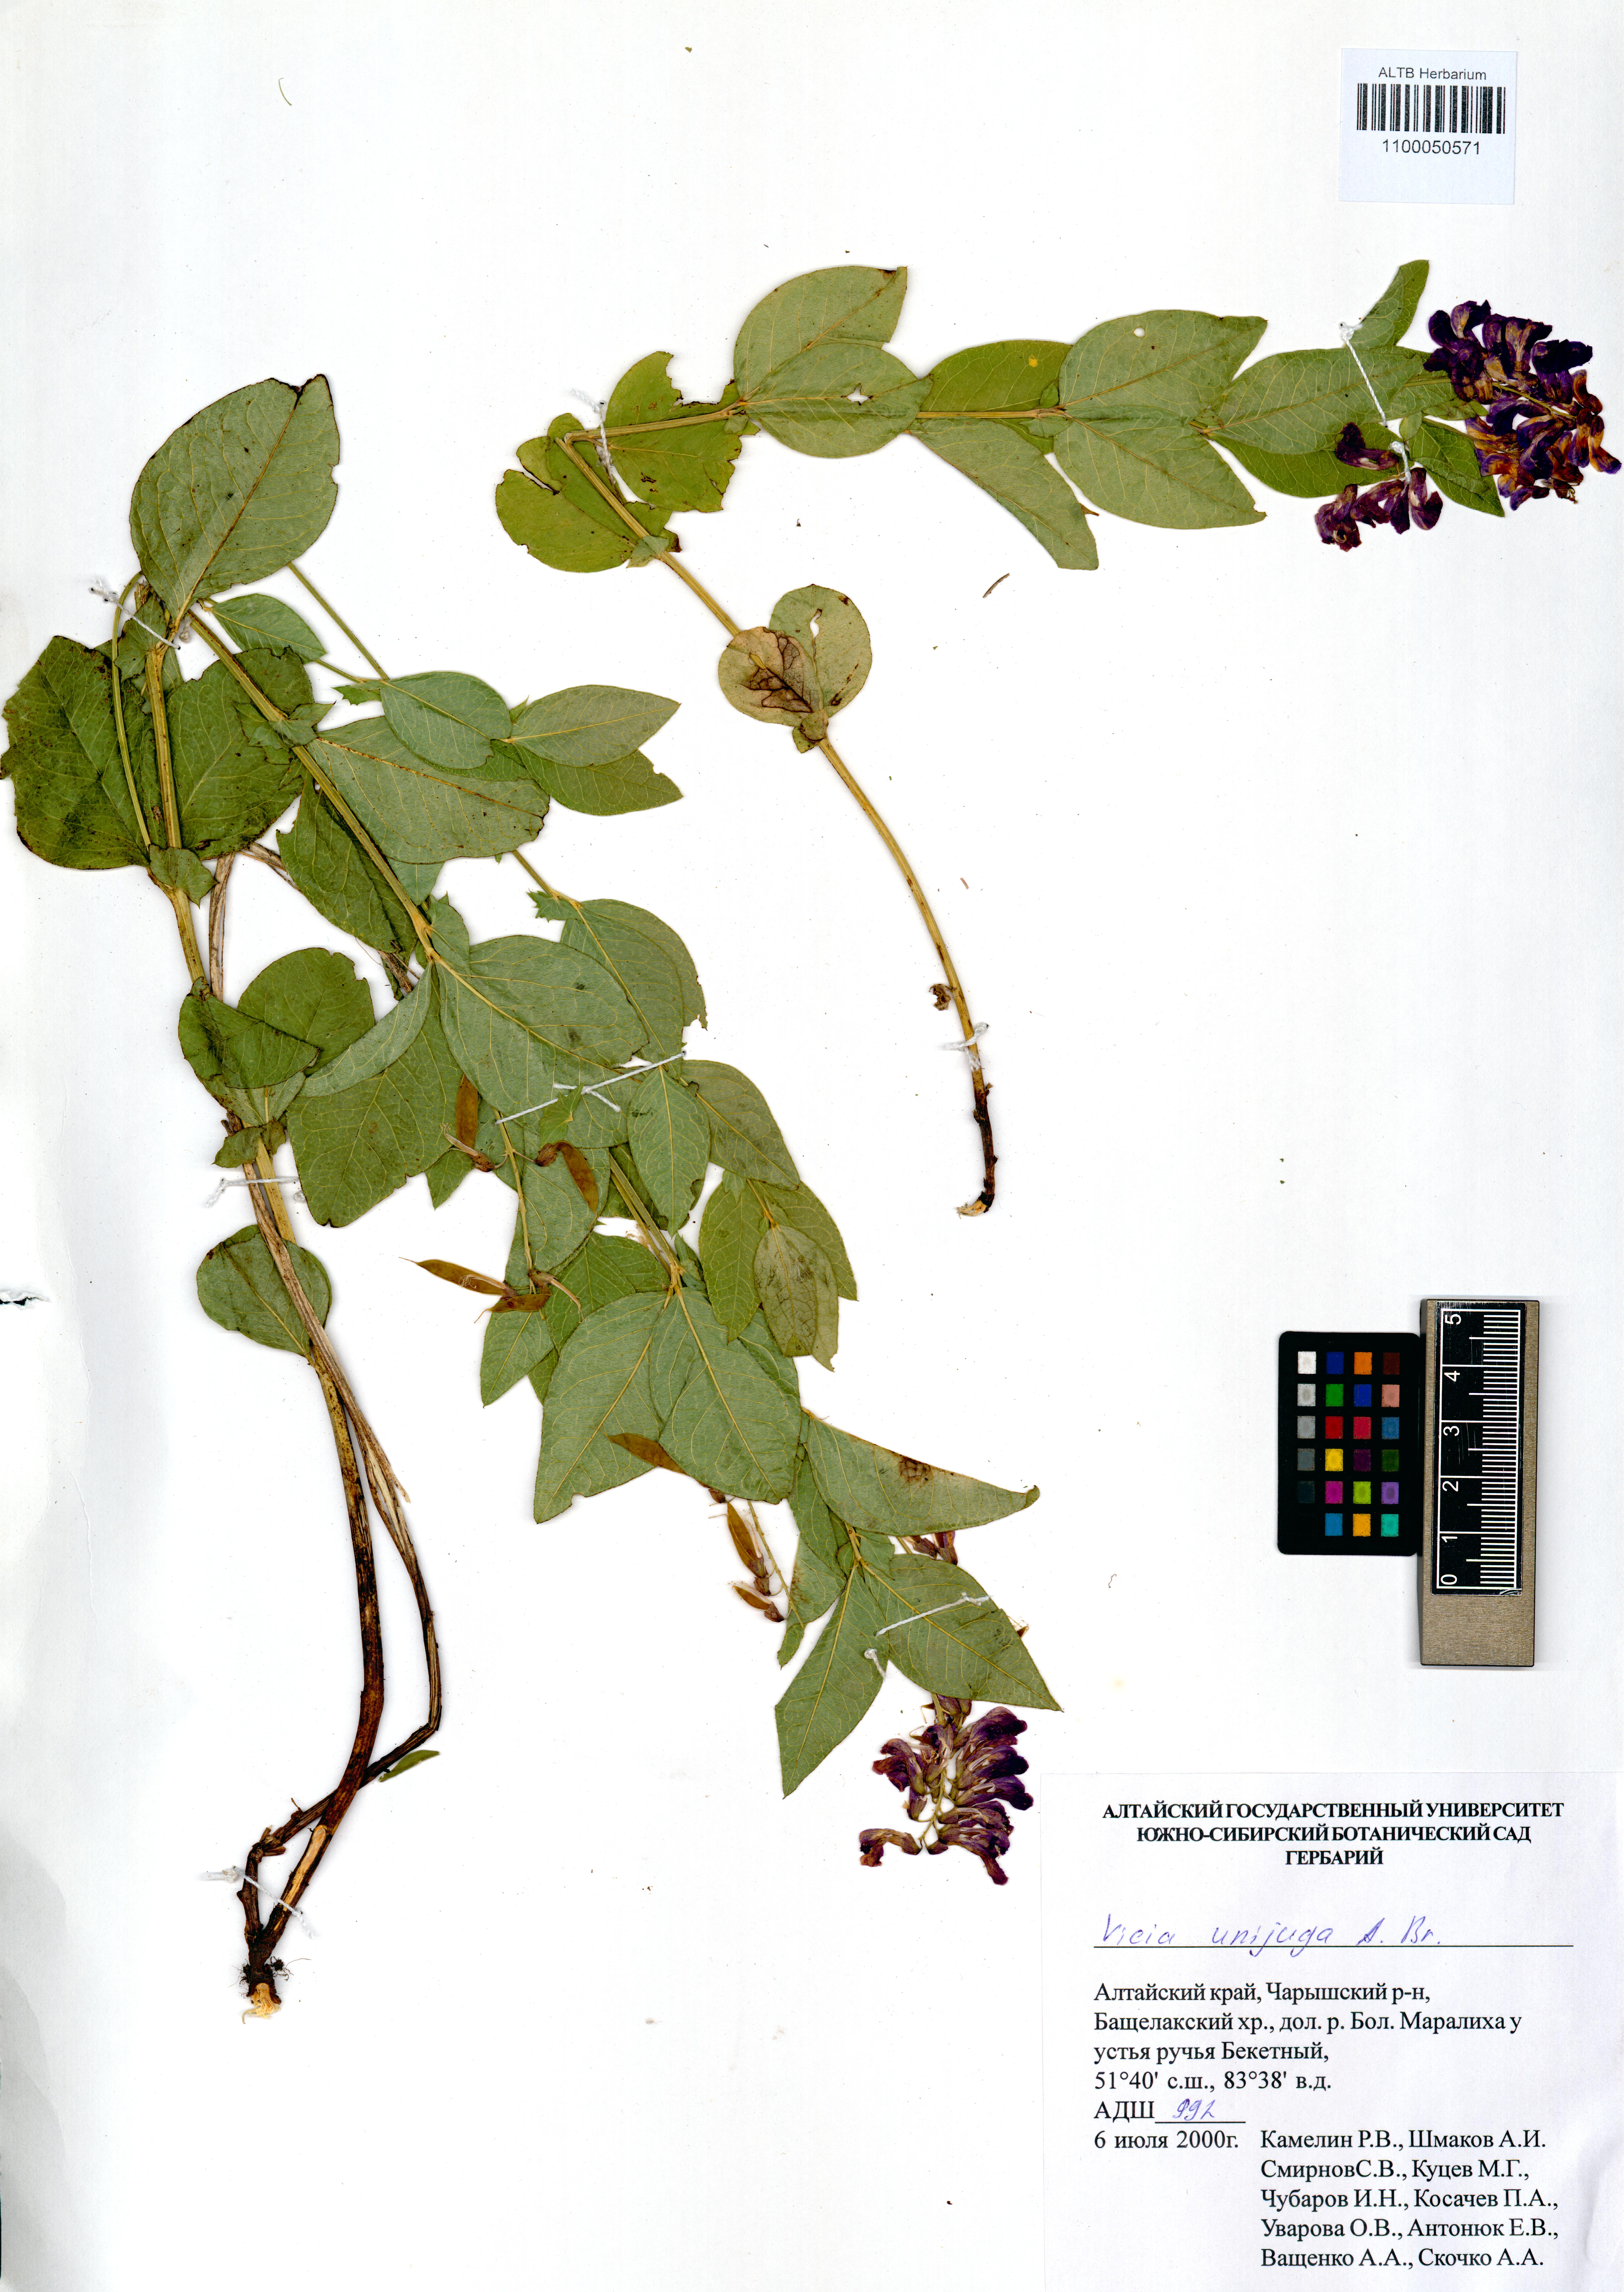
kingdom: Plantae
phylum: Tracheophyta
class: Magnoliopsida
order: Fabales
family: Fabaceae
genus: Vicia
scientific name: Vicia unijuga
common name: Two-leaf vetch
